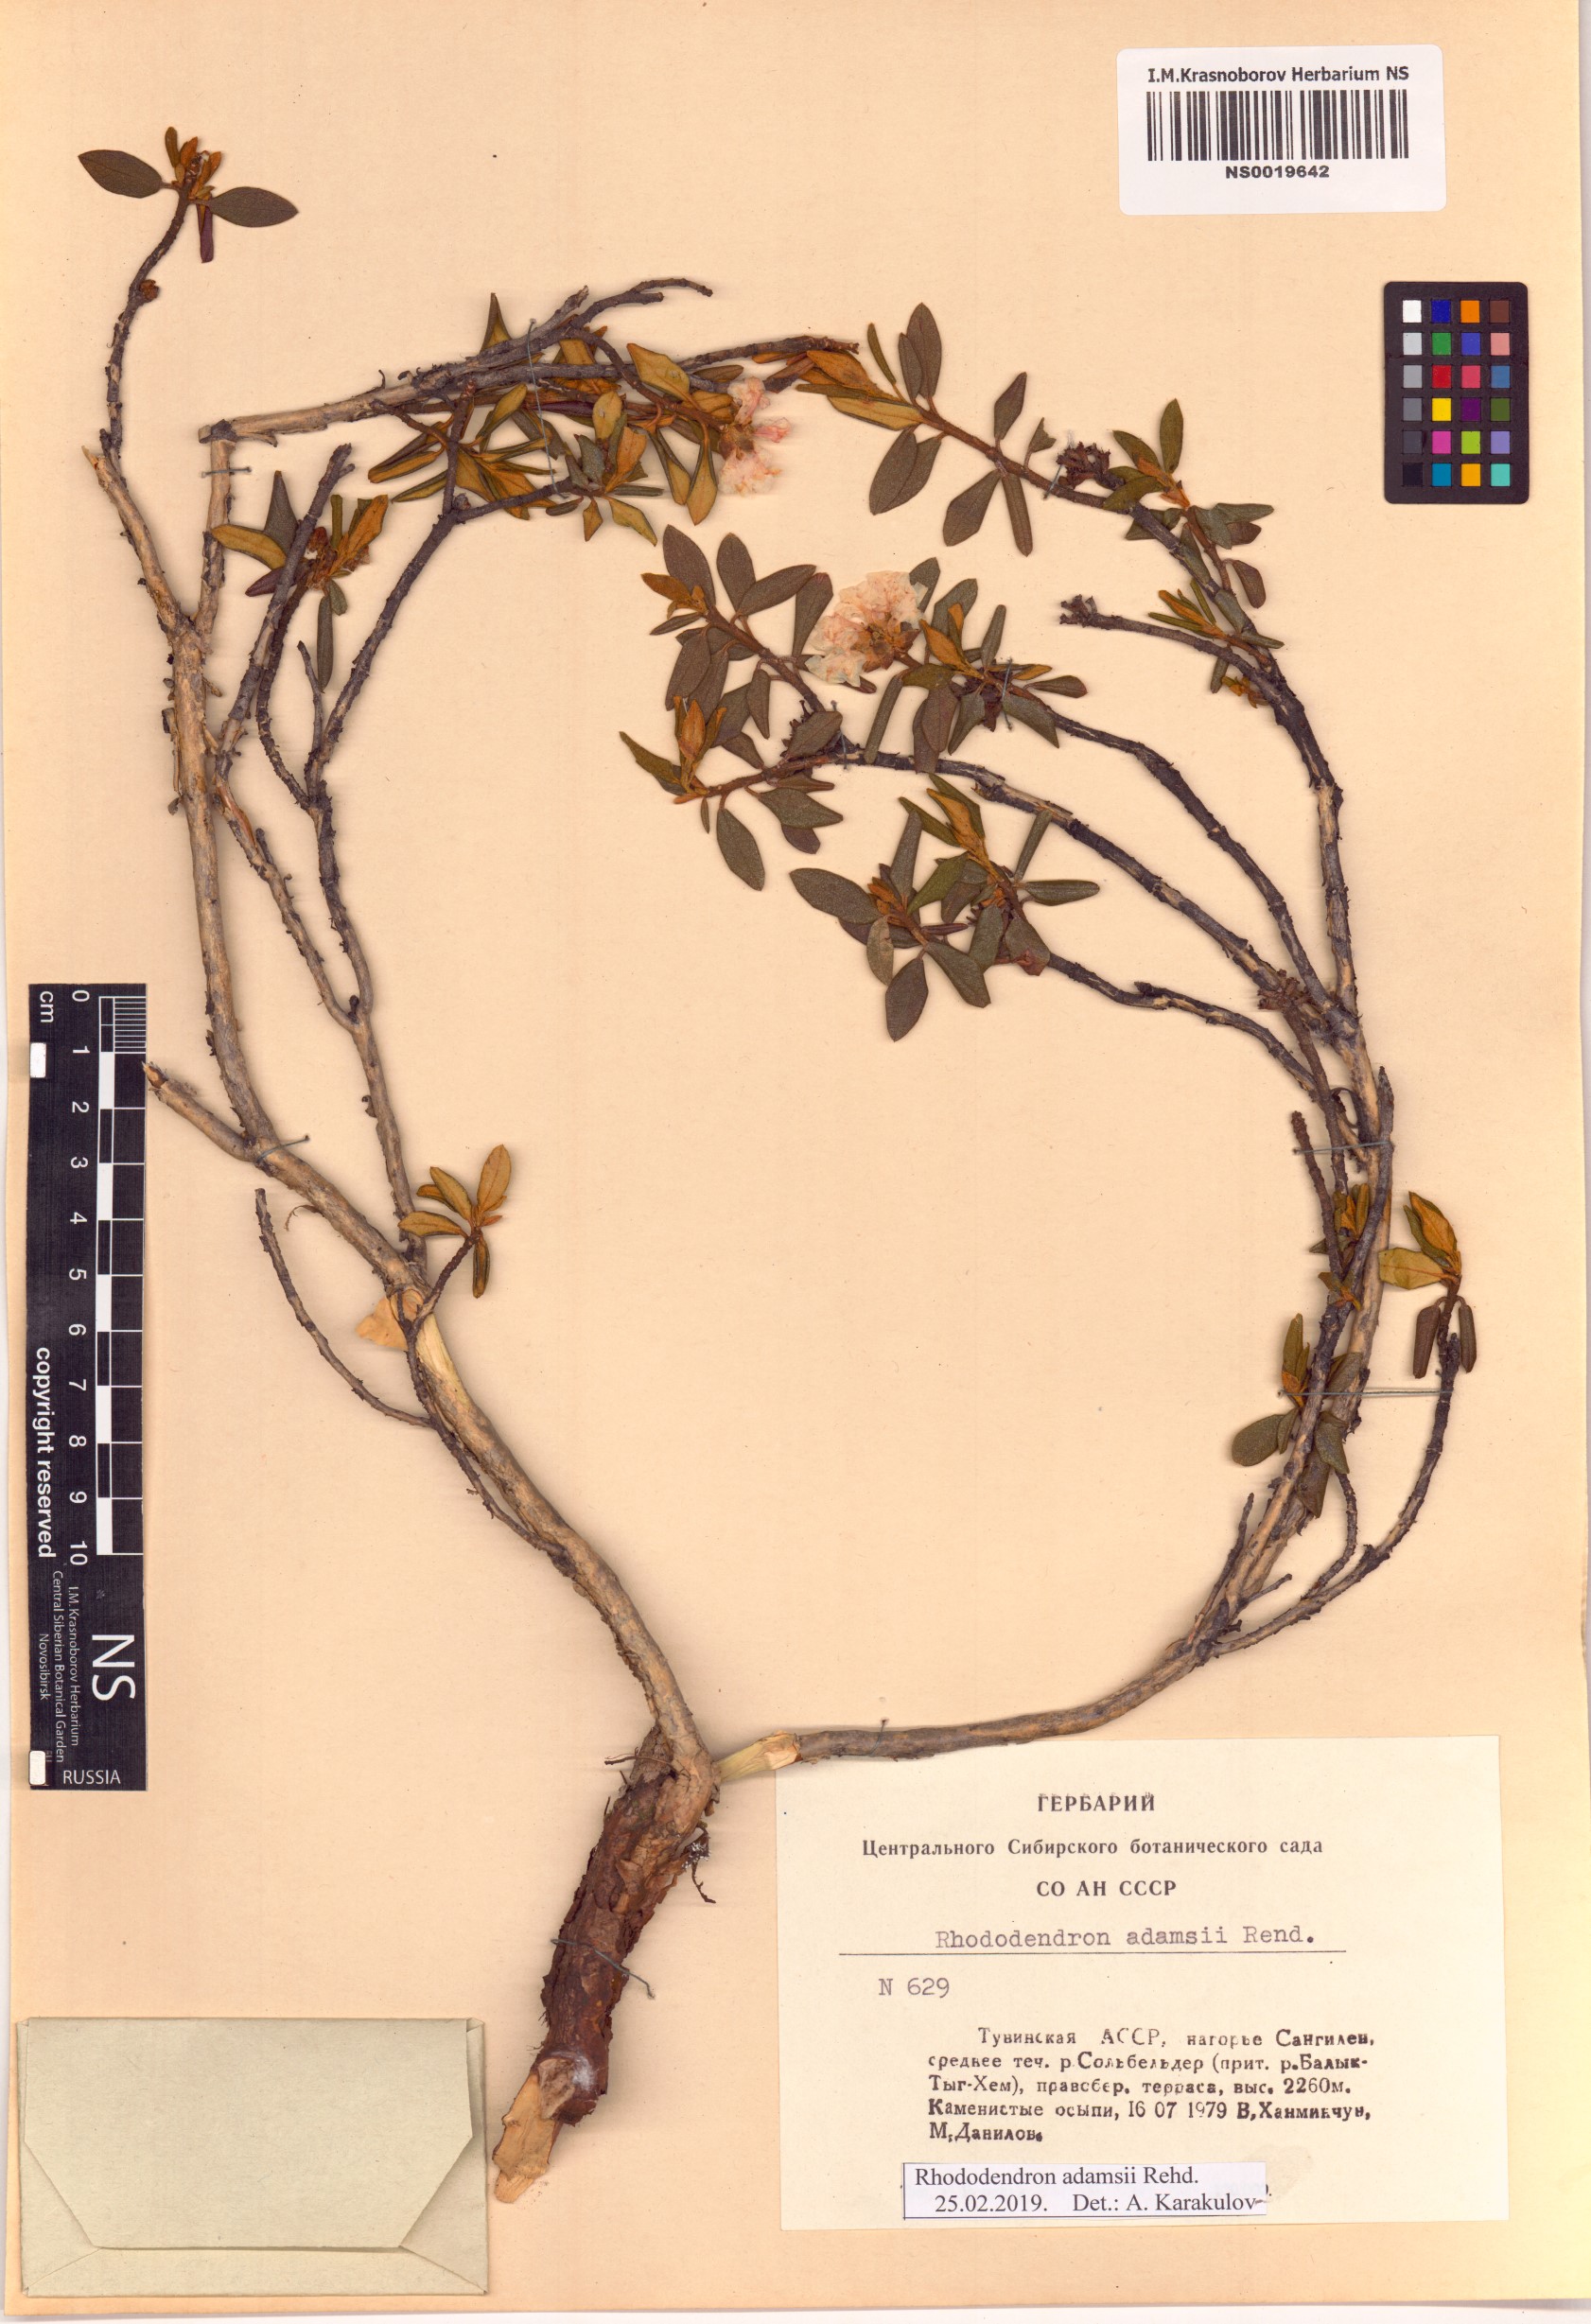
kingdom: Plantae
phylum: Tracheophyta
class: Magnoliopsida
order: Ericales
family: Ericaceae
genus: Rhododendron
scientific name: Rhododendron adamsii
